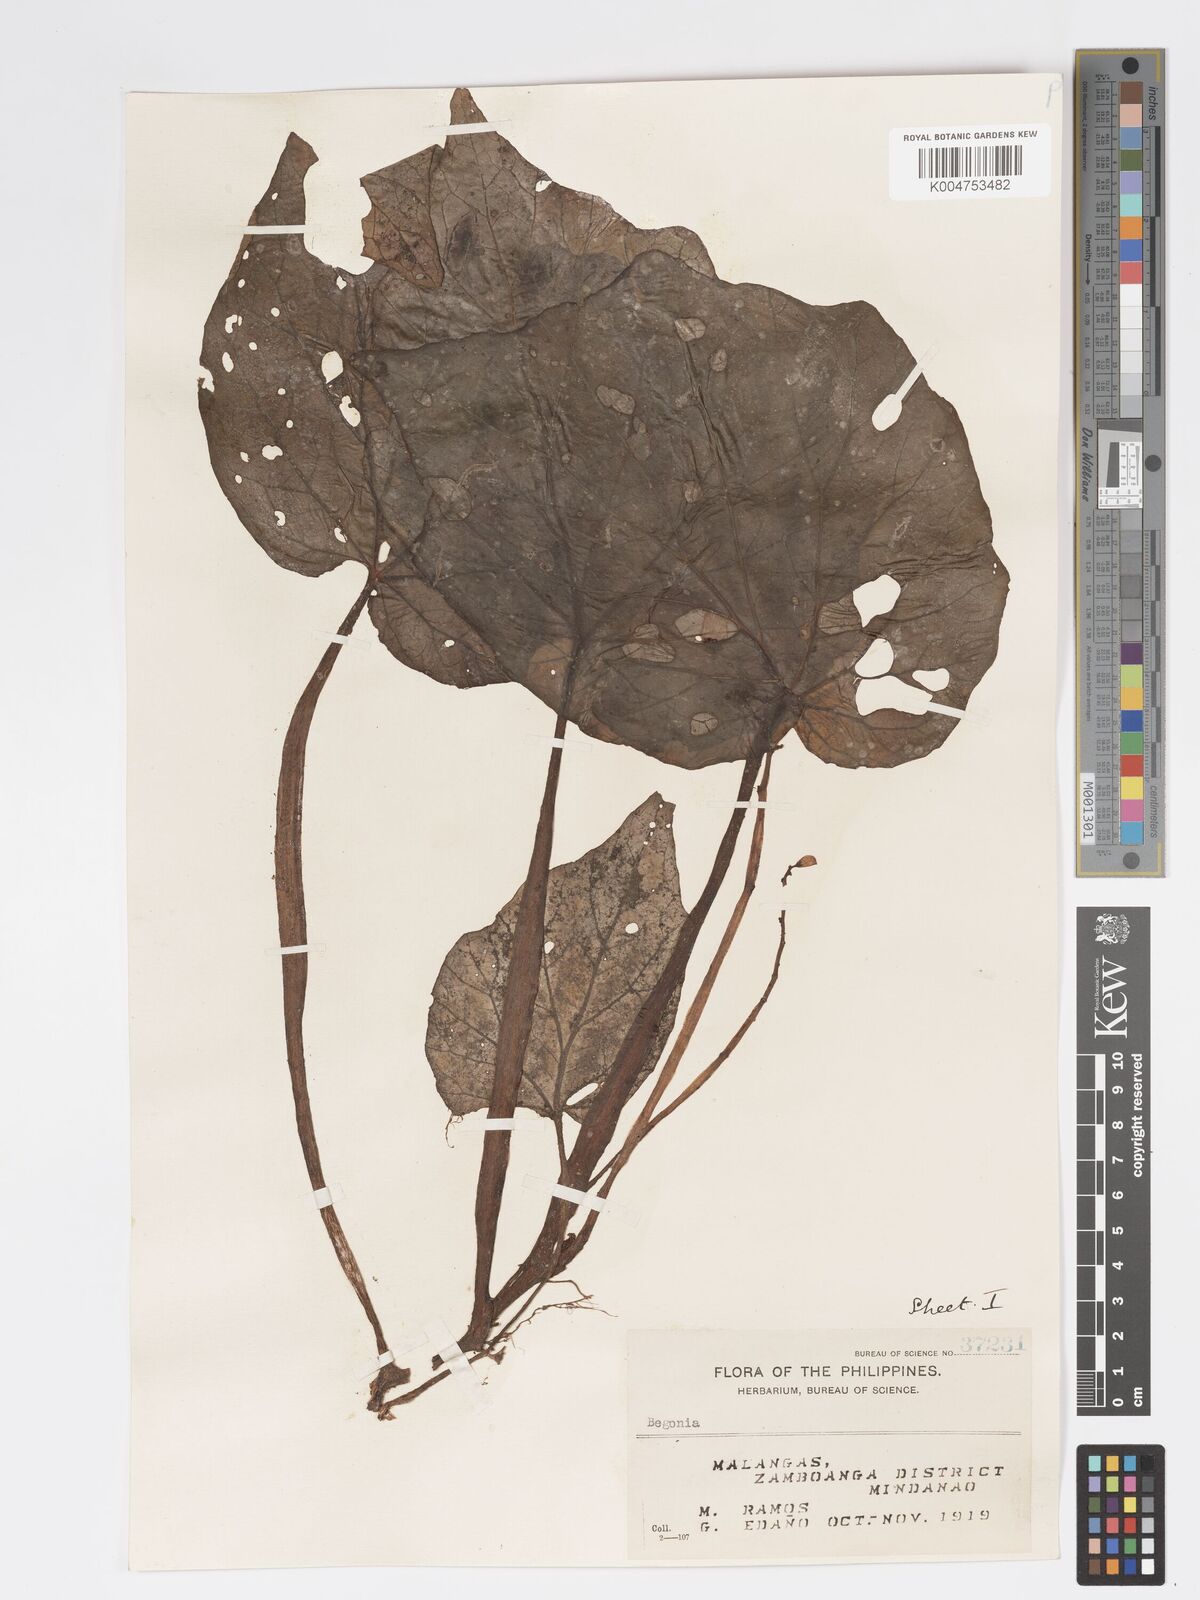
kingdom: Plantae
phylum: Tracheophyta
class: Magnoliopsida
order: Cucurbitales
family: Begoniaceae
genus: Begonia
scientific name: Begonia
